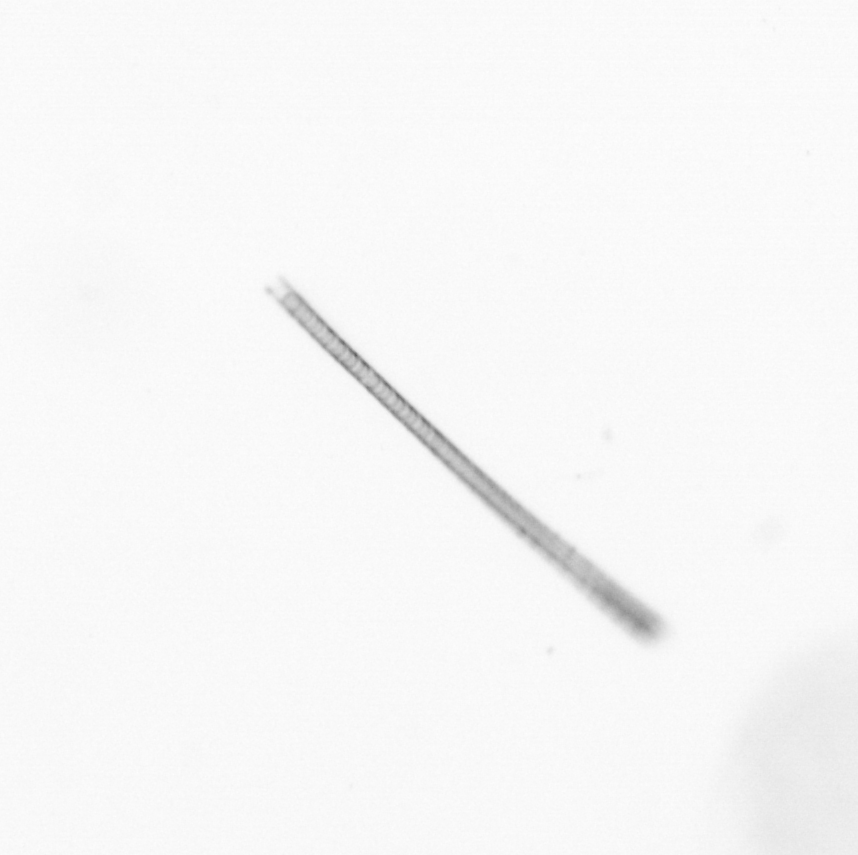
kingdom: Chromista
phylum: Ochrophyta
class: Bacillariophyceae
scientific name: Bacillariophyceae
